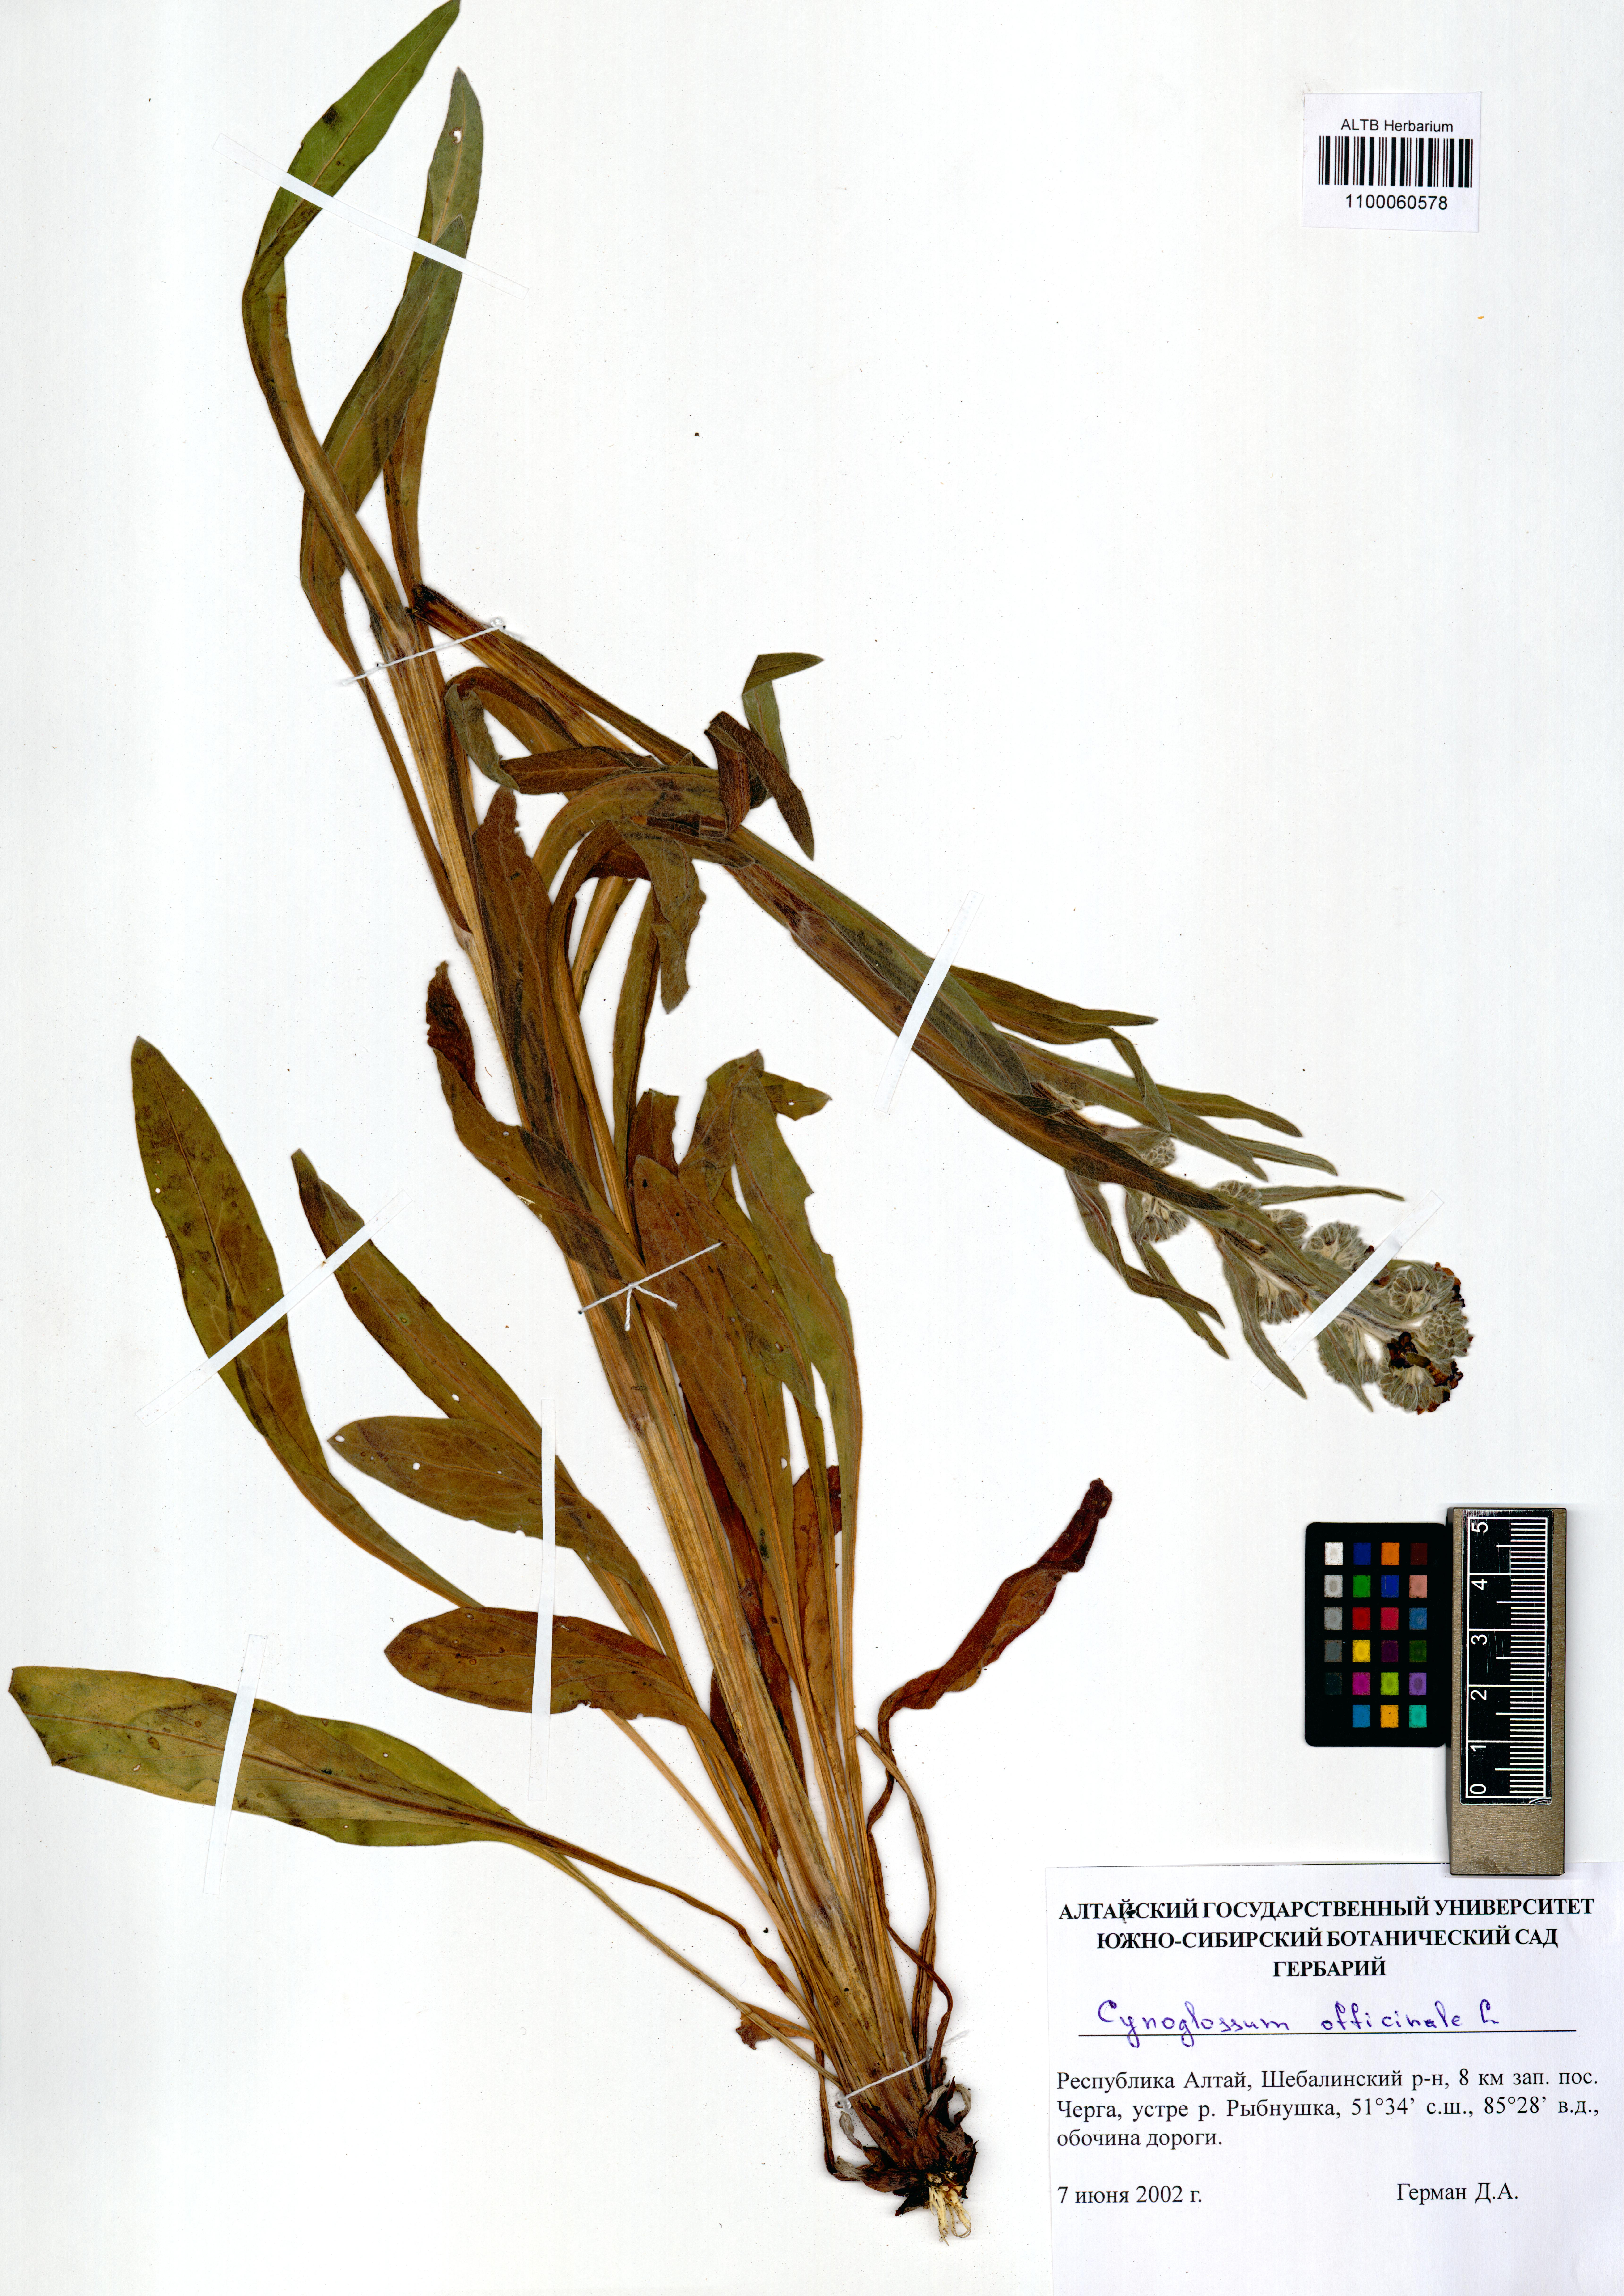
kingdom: Plantae
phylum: Tracheophyta
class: Magnoliopsida
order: Boraginales
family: Boraginaceae
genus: Cynoglossum
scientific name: Cynoglossum officinale
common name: Hound's-tongue
